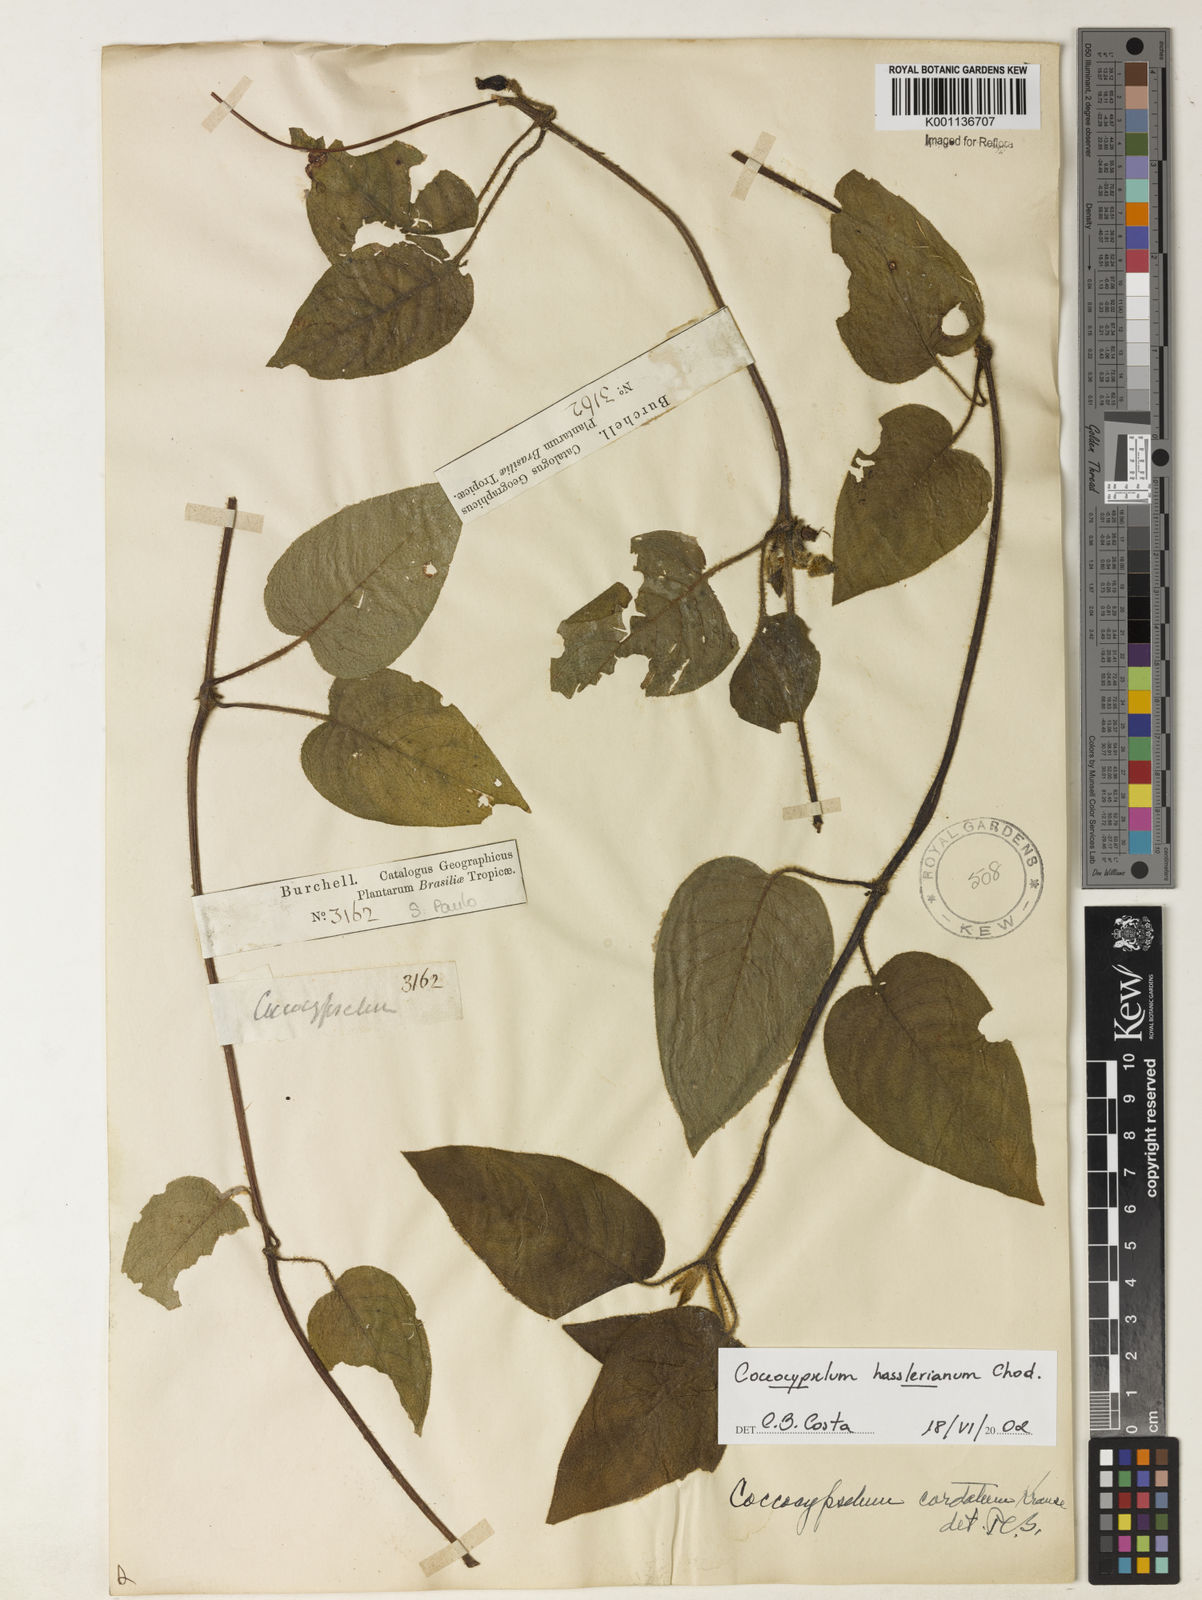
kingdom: Plantae
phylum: Tracheophyta
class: Magnoliopsida
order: Gentianales
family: Rubiaceae
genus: Coccocypselum
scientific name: Coccocypselum hasslerianum
